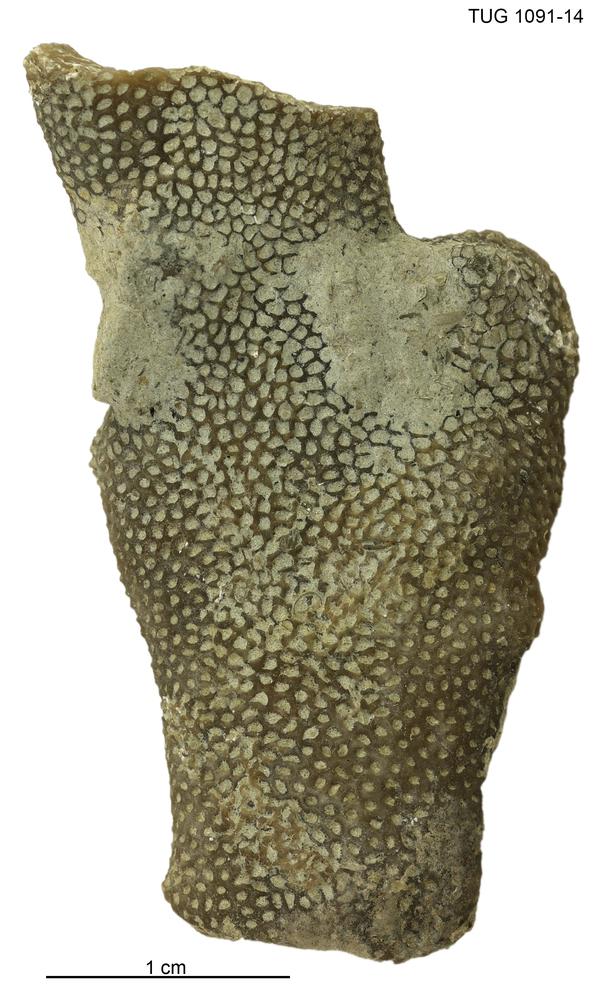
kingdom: Animalia
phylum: Cnidaria
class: Anthozoa
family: Pachyporidae
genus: Striatopora
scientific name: Striatopora
